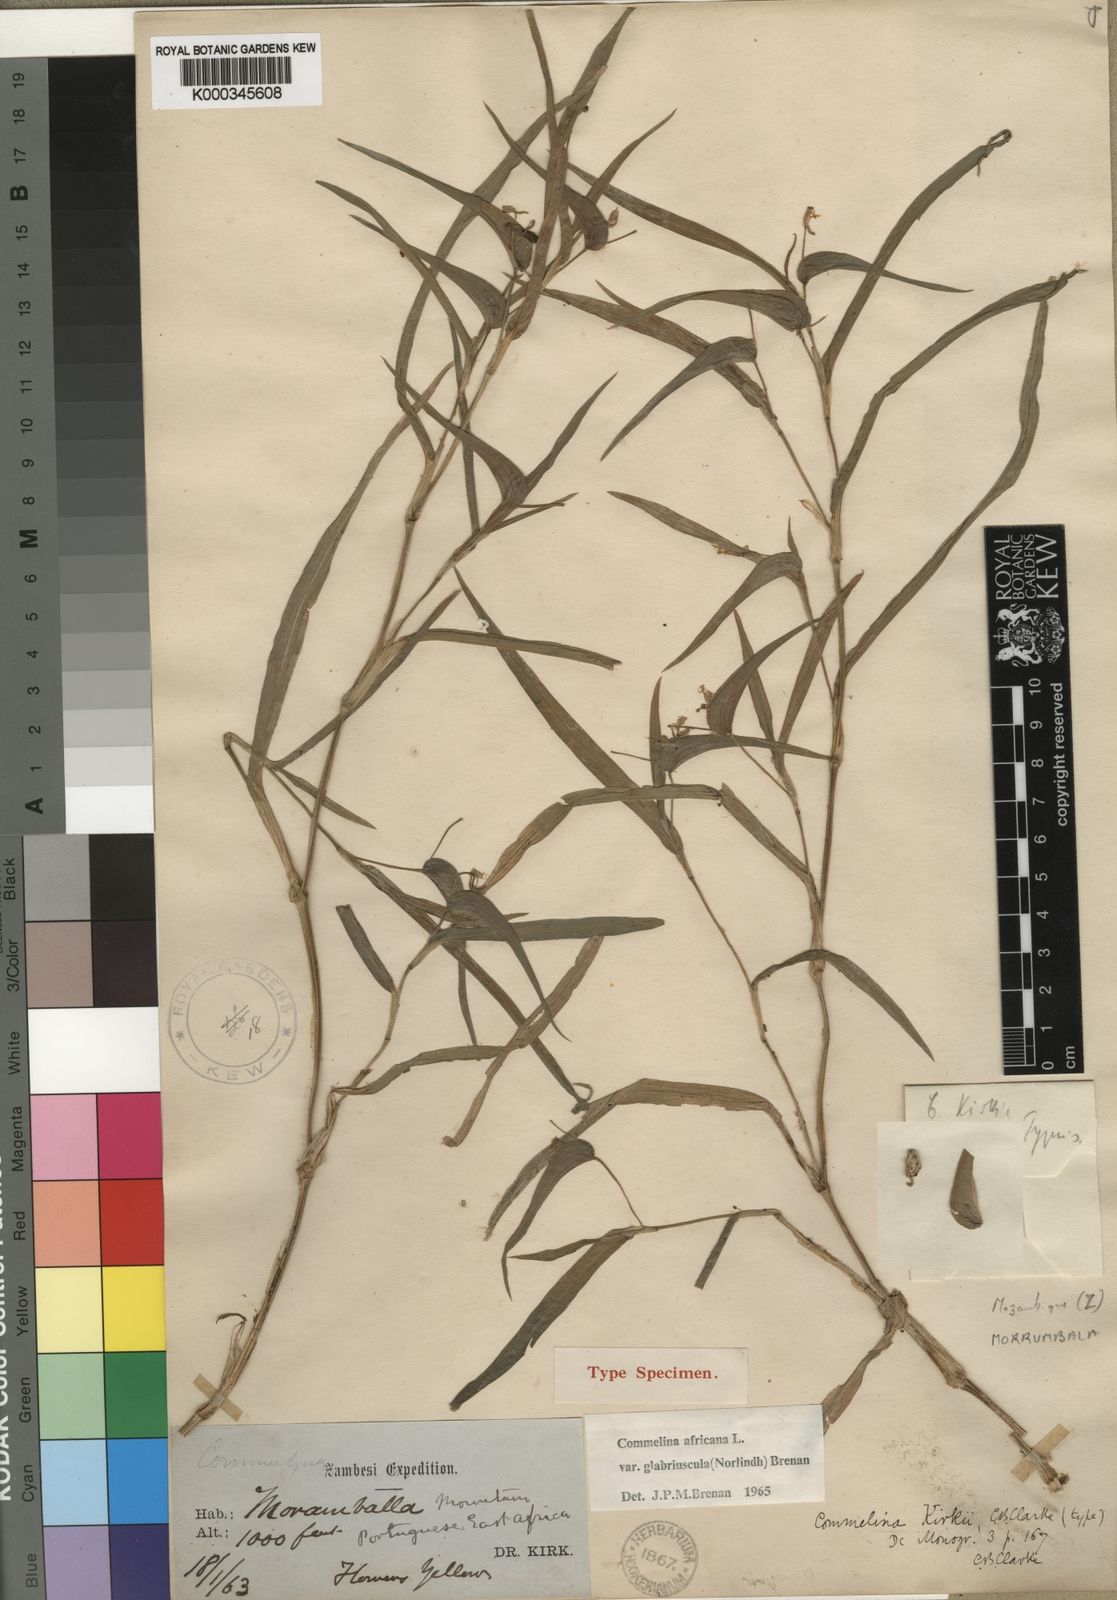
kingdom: Plantae
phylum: Tracheophyta
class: Liliopsida
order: Commelinales
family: Commelinaceae
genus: Commelina
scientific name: Commelina africana
